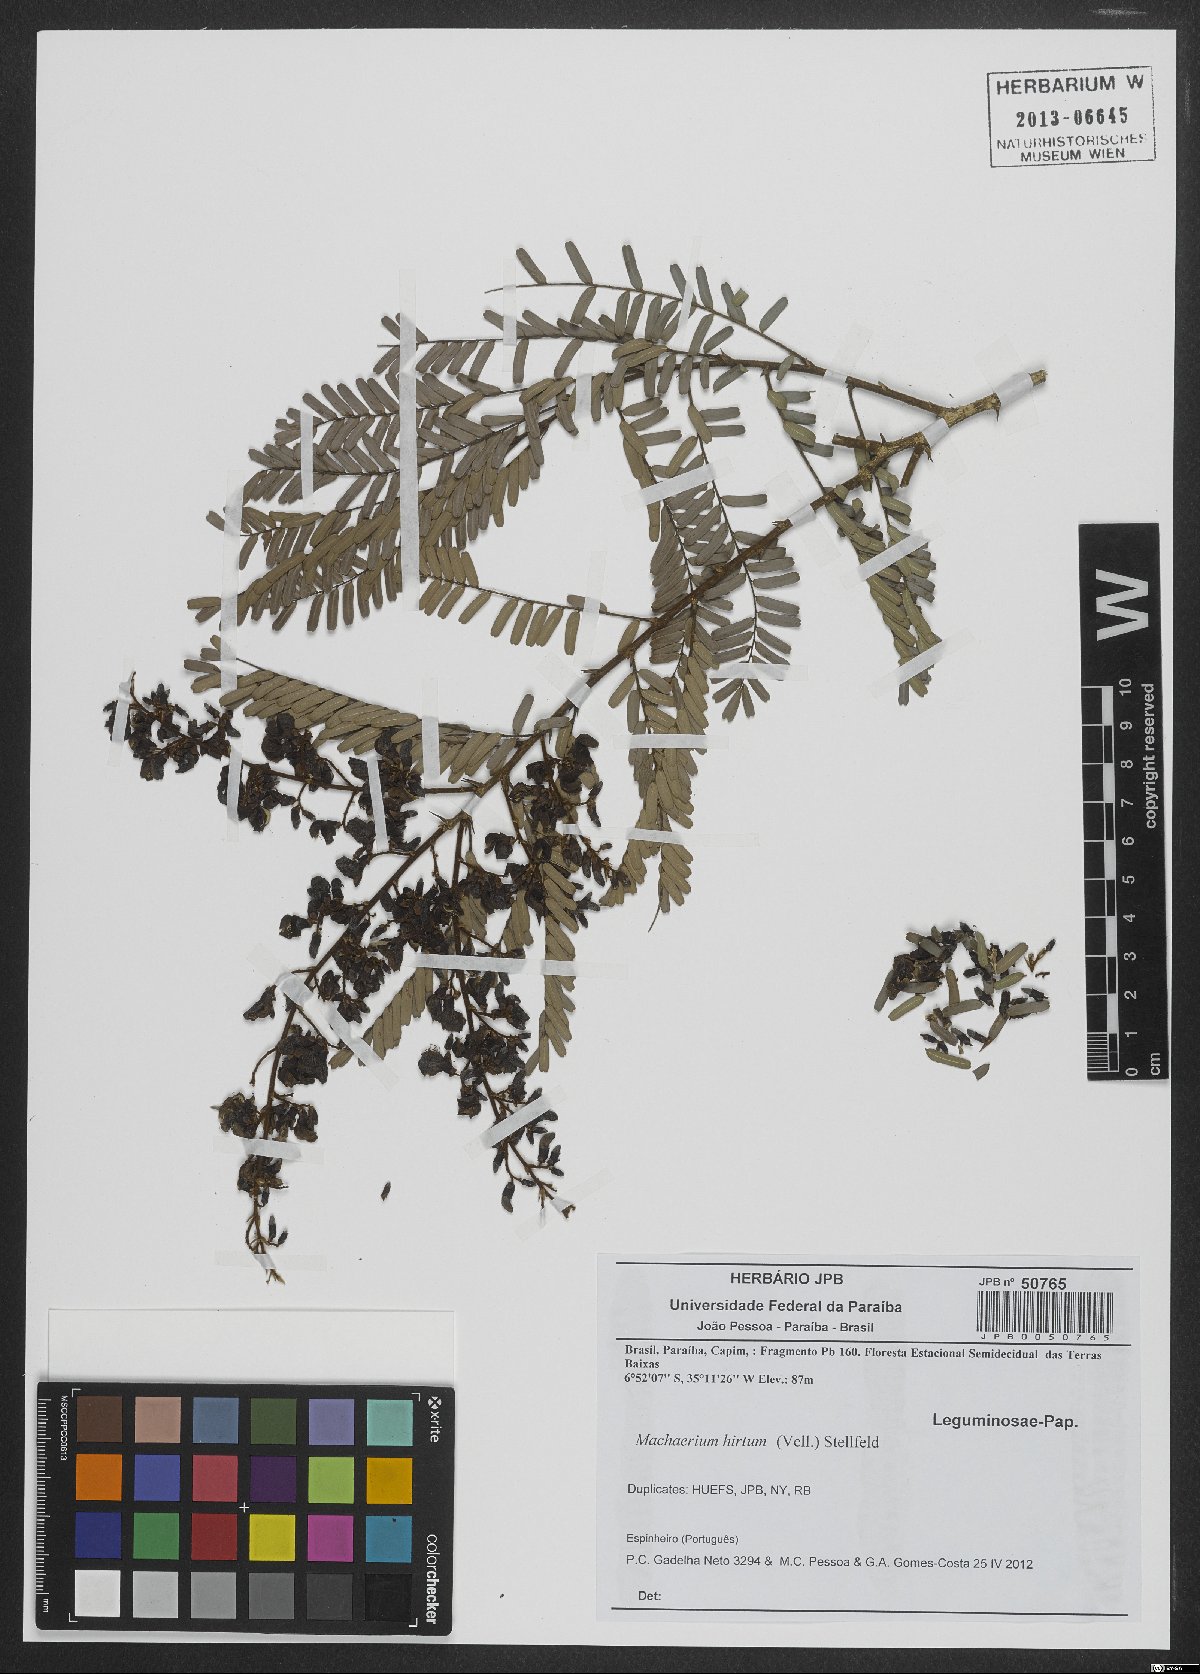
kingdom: Plantae
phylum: Tracheophyta
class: Magnoliopsida
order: Fabales
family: Fabaceae
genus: Machaerium
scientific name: Machaerium hirtum
